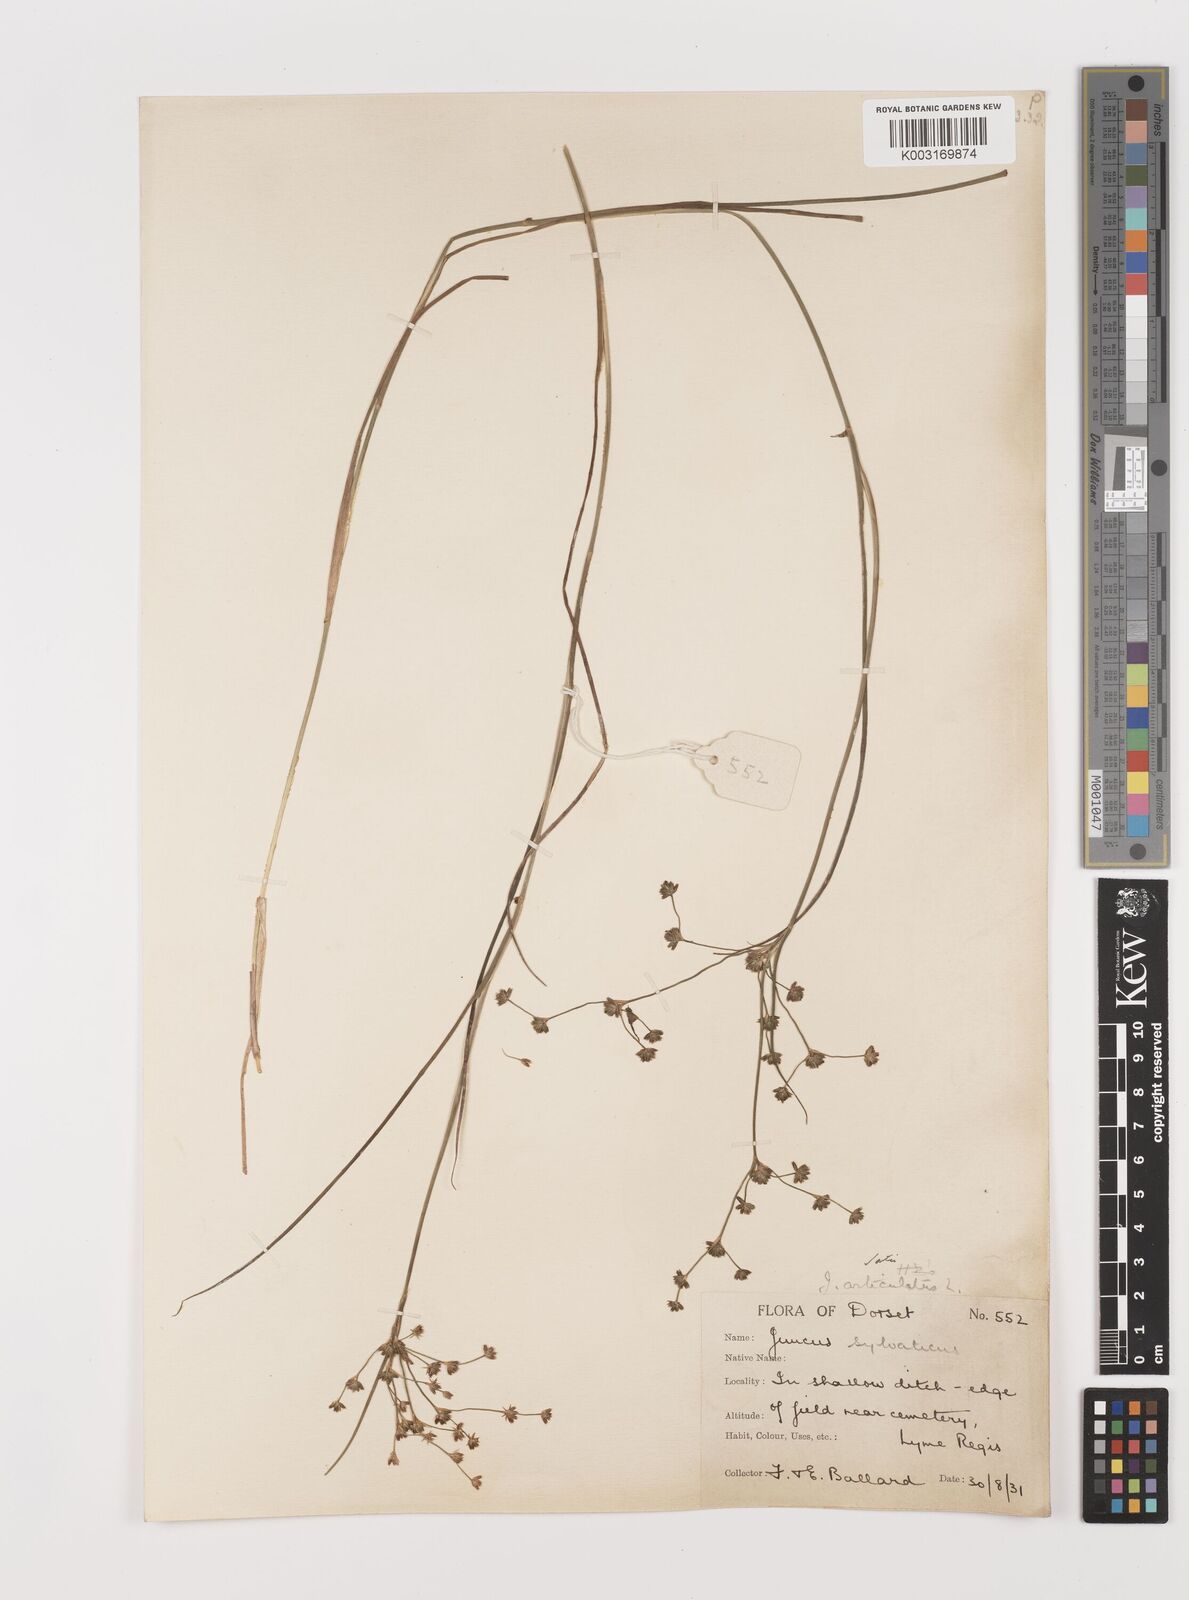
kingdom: Plantae
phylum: Tracheophyta
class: Liliopsida
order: Poales
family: Juncaceae
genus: Juncus
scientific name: Juncus articulatus
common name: Jointed rush
